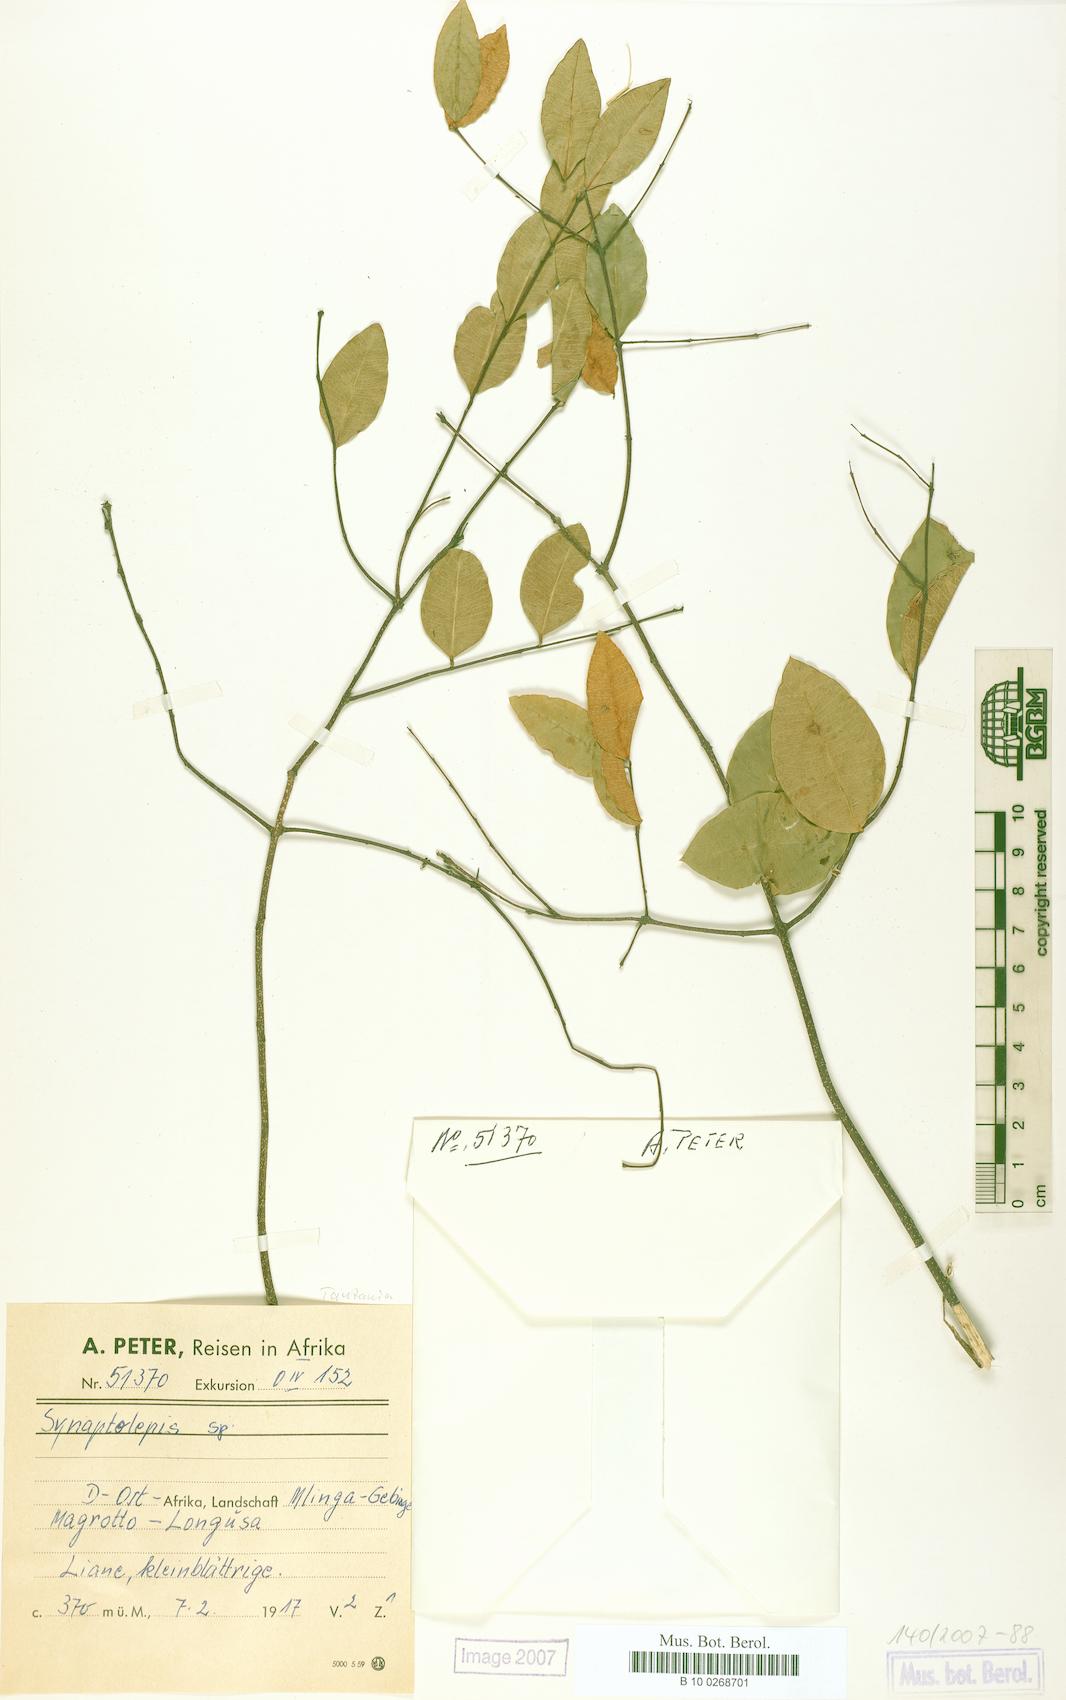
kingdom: Plantae
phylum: Tracheophyta
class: Magnoliopsida
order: Malvales
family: Thymelaeaceae
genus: Synaptolepis
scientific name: Synaptolepis
